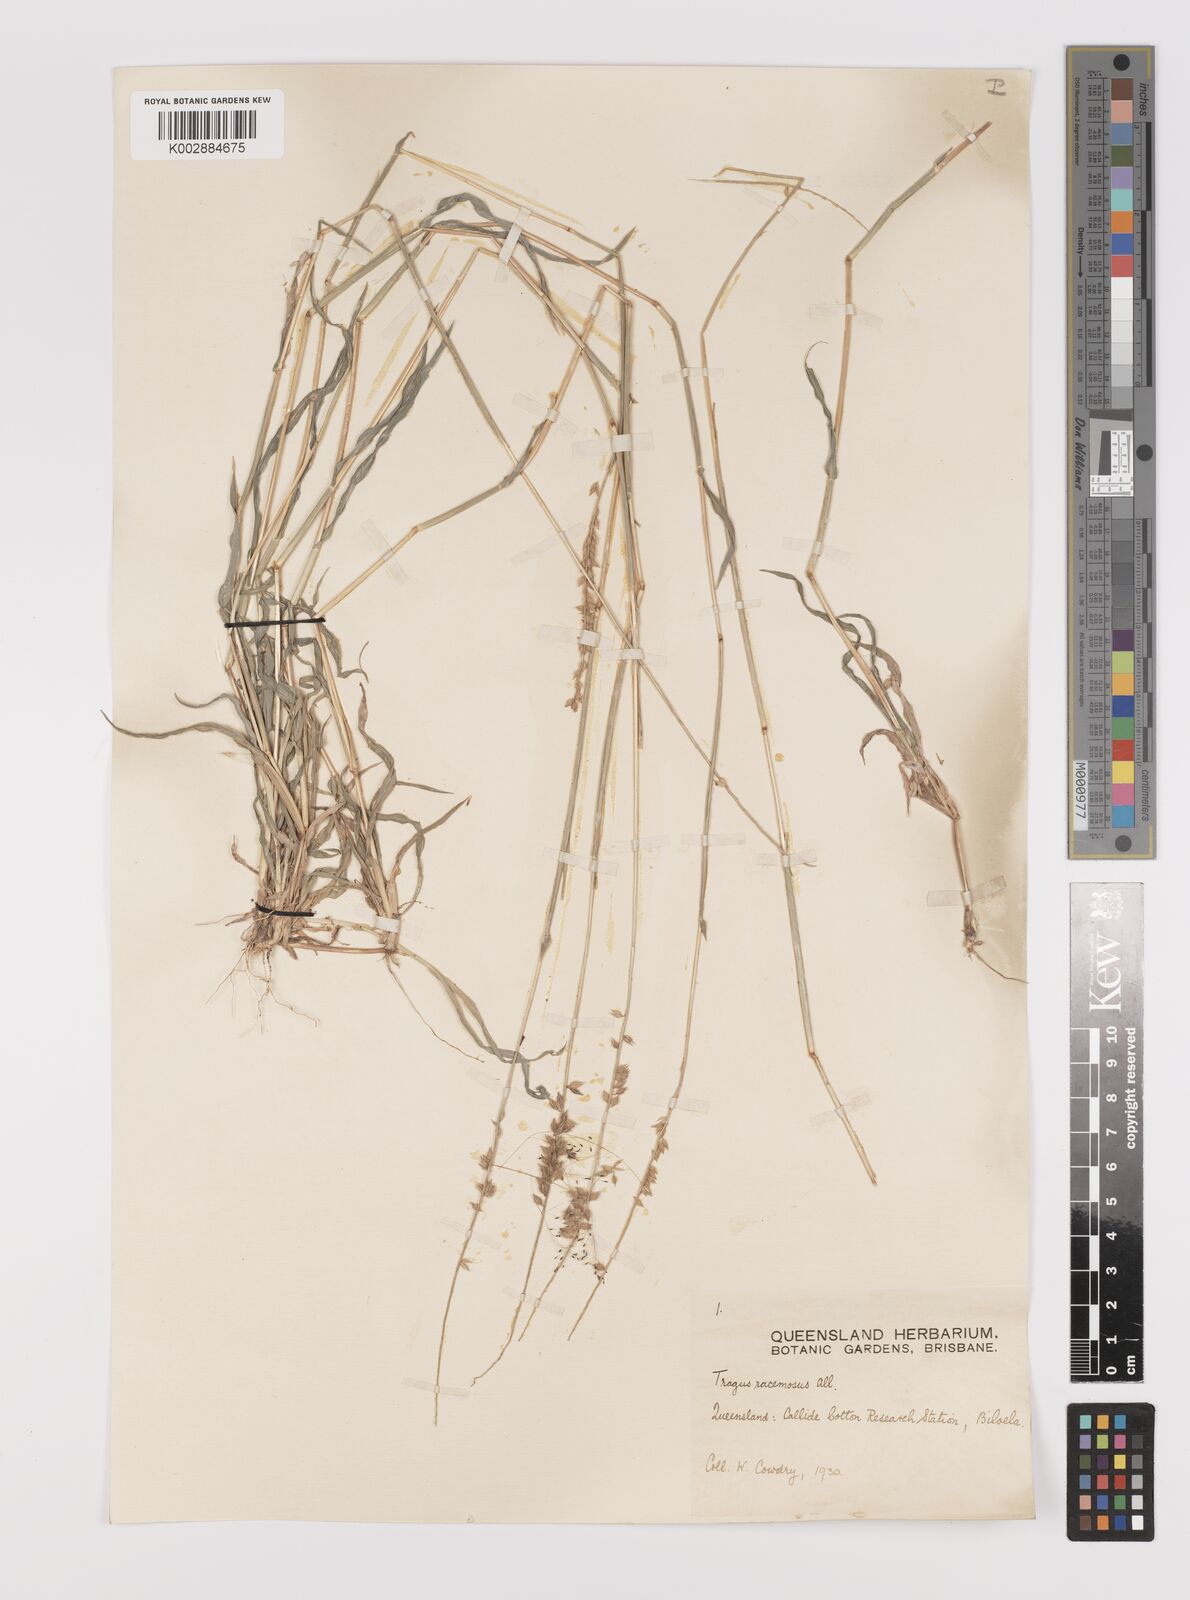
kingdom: Plantae
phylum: Tracheophyta
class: Liliopsida
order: Poales
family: Poaceae
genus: Tragus
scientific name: Tragus australianus
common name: Australian bur-grass
